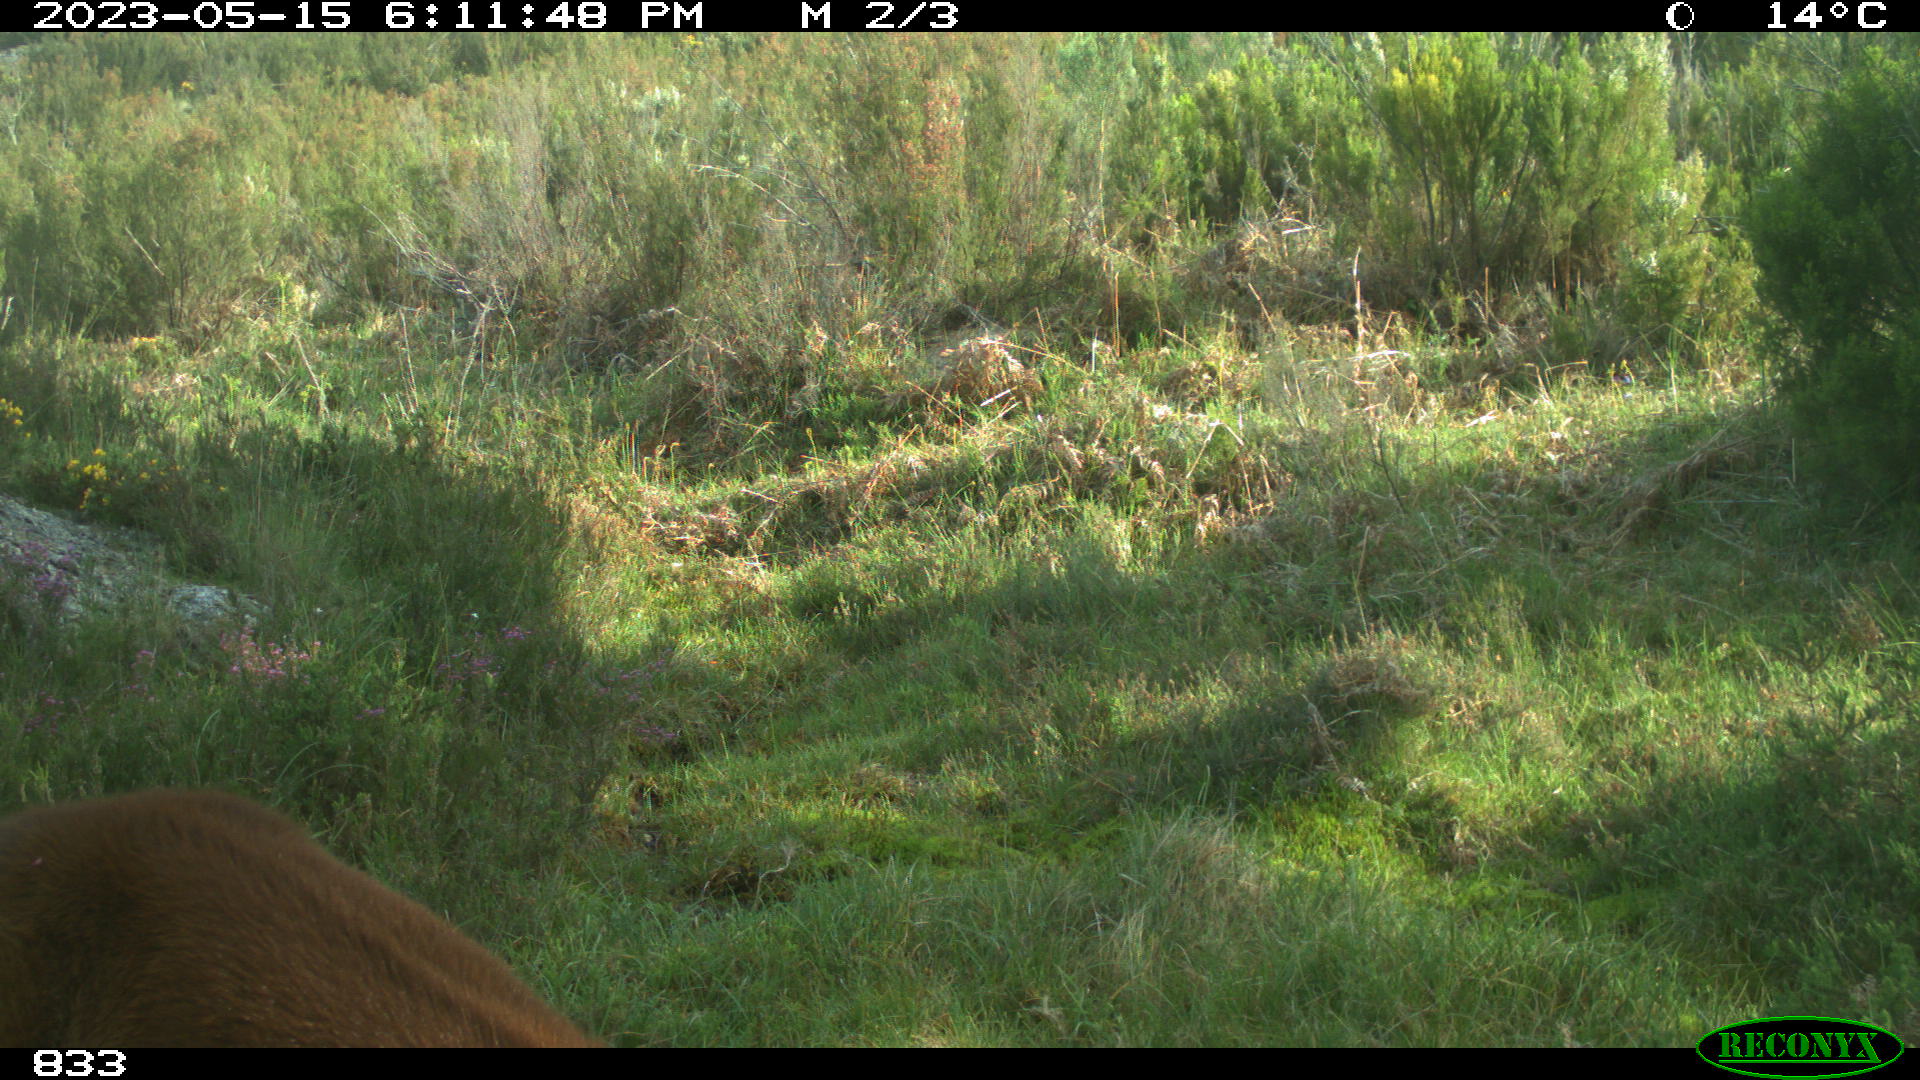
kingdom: Animalia
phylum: Chordata
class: Mammalia
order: Perissodactyla
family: Equidae
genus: Equus
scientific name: Equus caballus
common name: Horse
